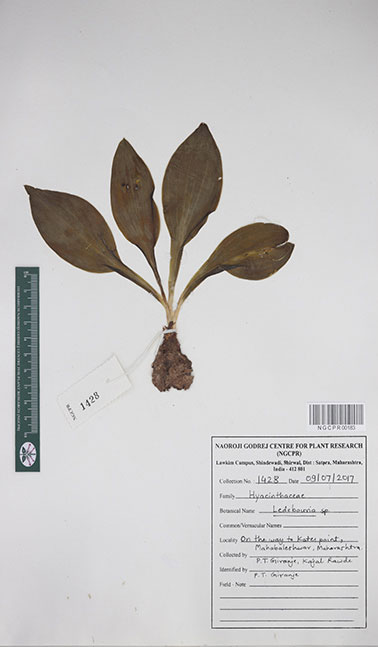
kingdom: Plantae
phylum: Tracheophyta
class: Liliopsida
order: Asparagales
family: Asparagaceae
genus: Ledebouria
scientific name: Ledebouria
